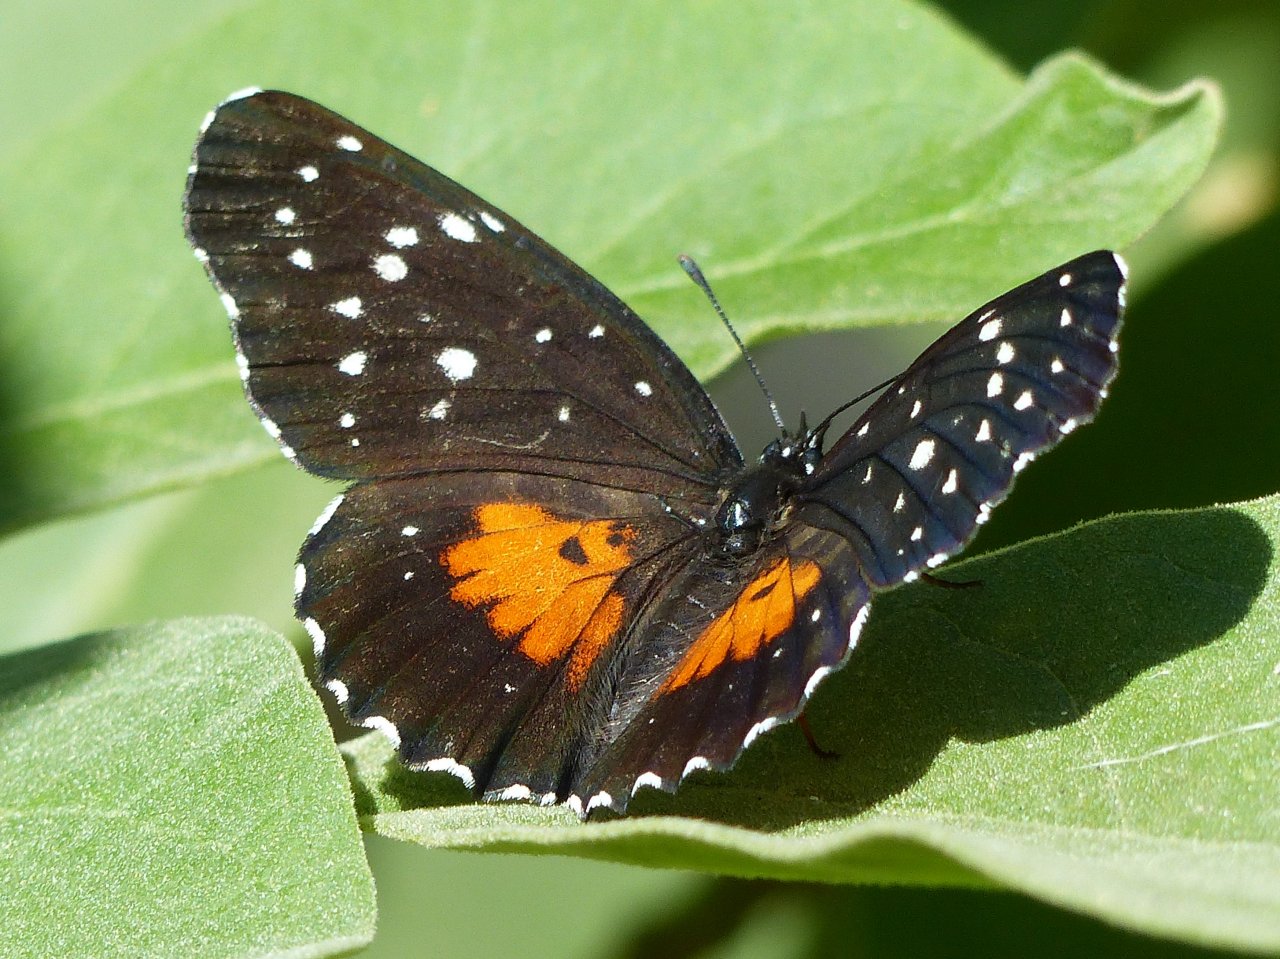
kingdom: Animalia
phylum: Arthropoda
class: Insecta
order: Lepidoptera
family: Nymphalidae
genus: Chlosyne
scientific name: Chlosyne janais
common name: Crimson Patch
